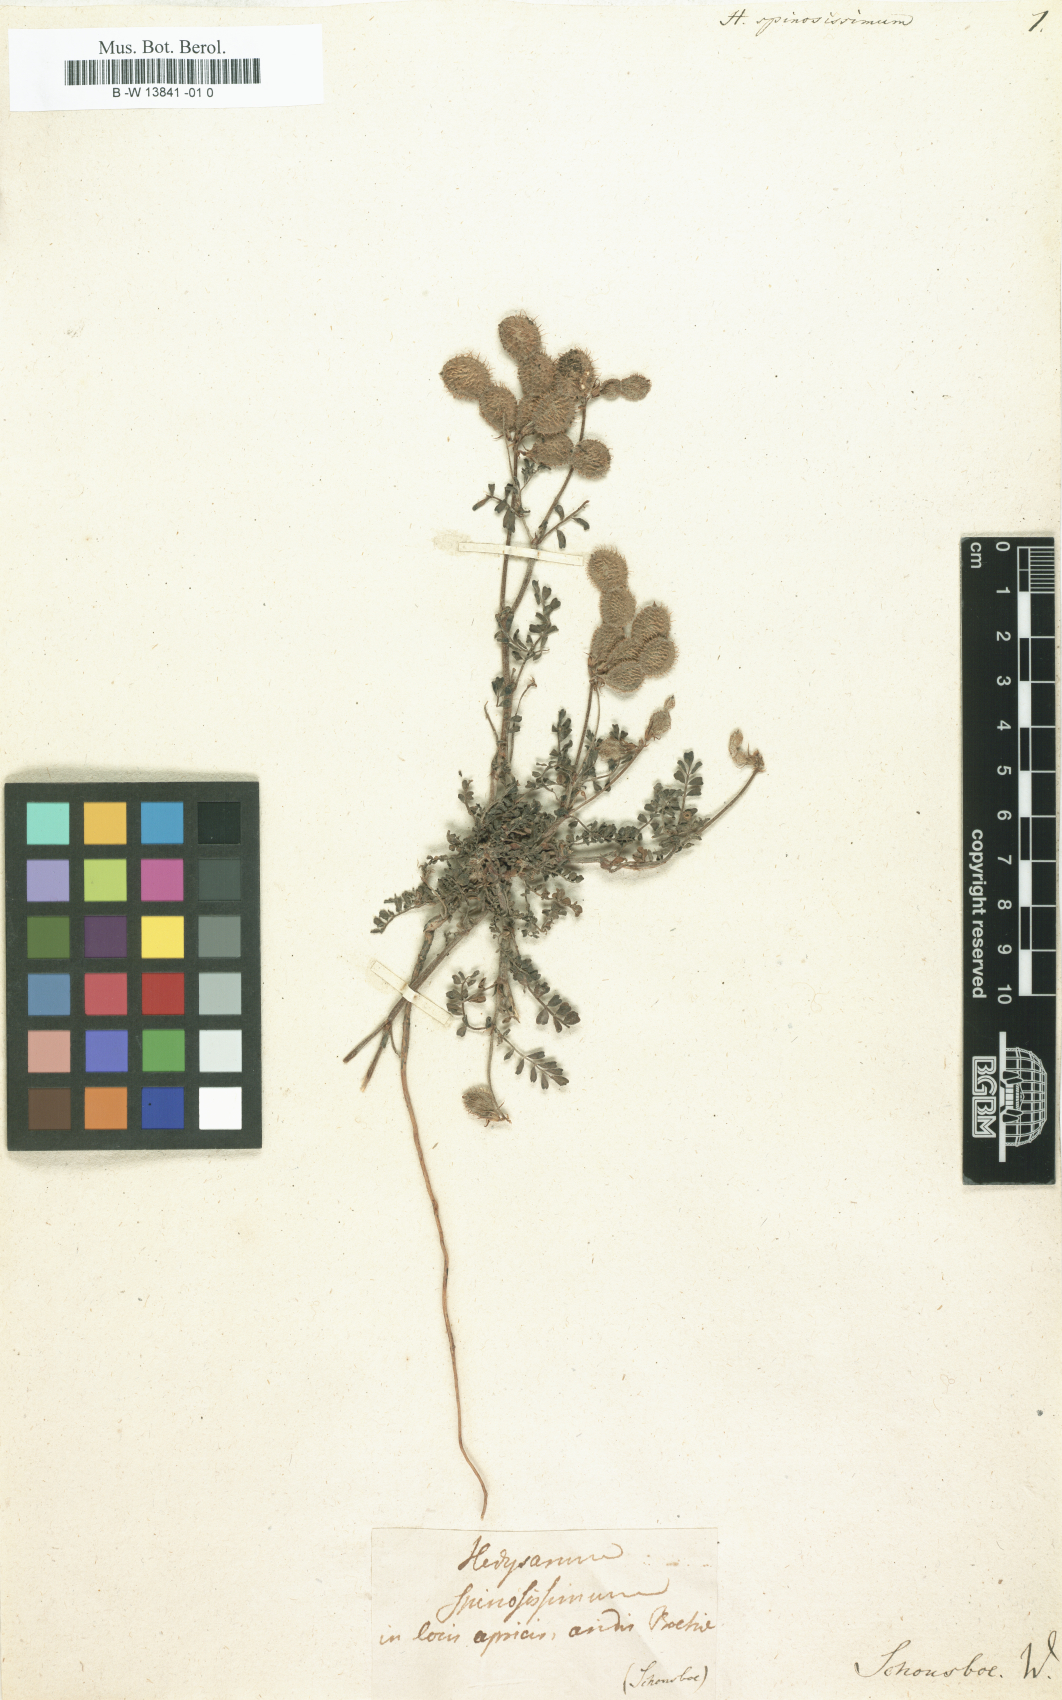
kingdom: Plantae
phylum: Tracheophyta
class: Magnoliopsida
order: Fabales
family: Fabaceae
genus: Grona
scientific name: Grona styracifolia
